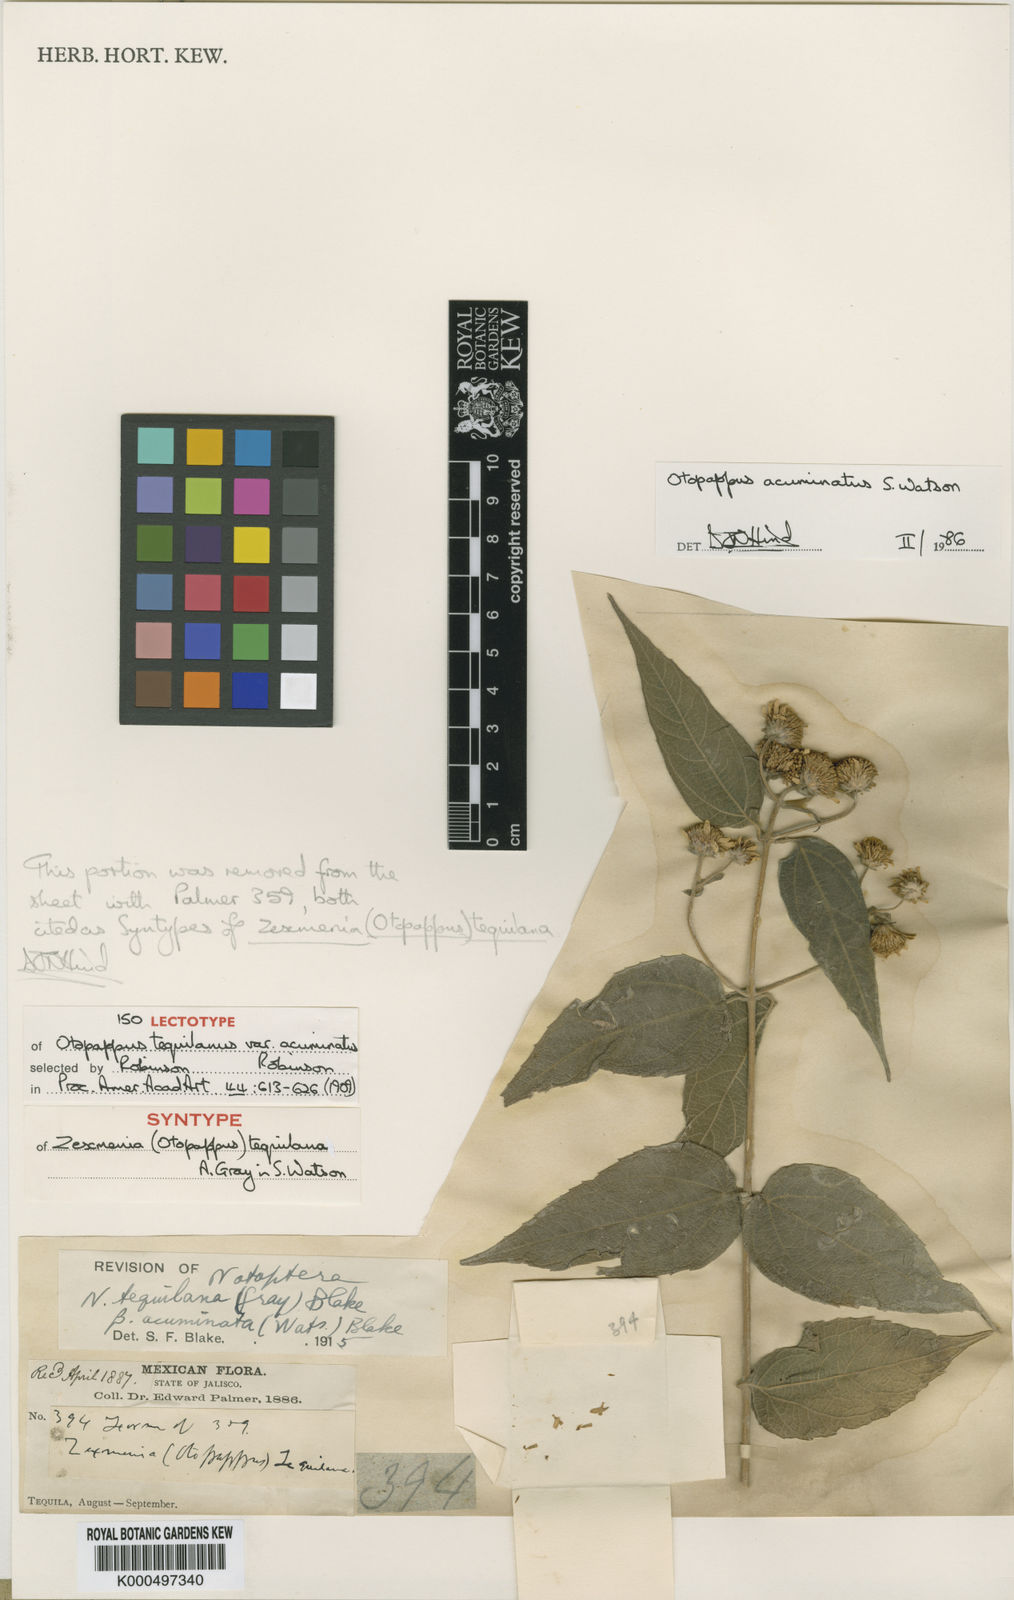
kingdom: Plantae
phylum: Tracheophyta
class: Magnoliopsida
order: Asterales
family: Asteraceae
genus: Otopappus
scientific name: Otopappus acuminatus
